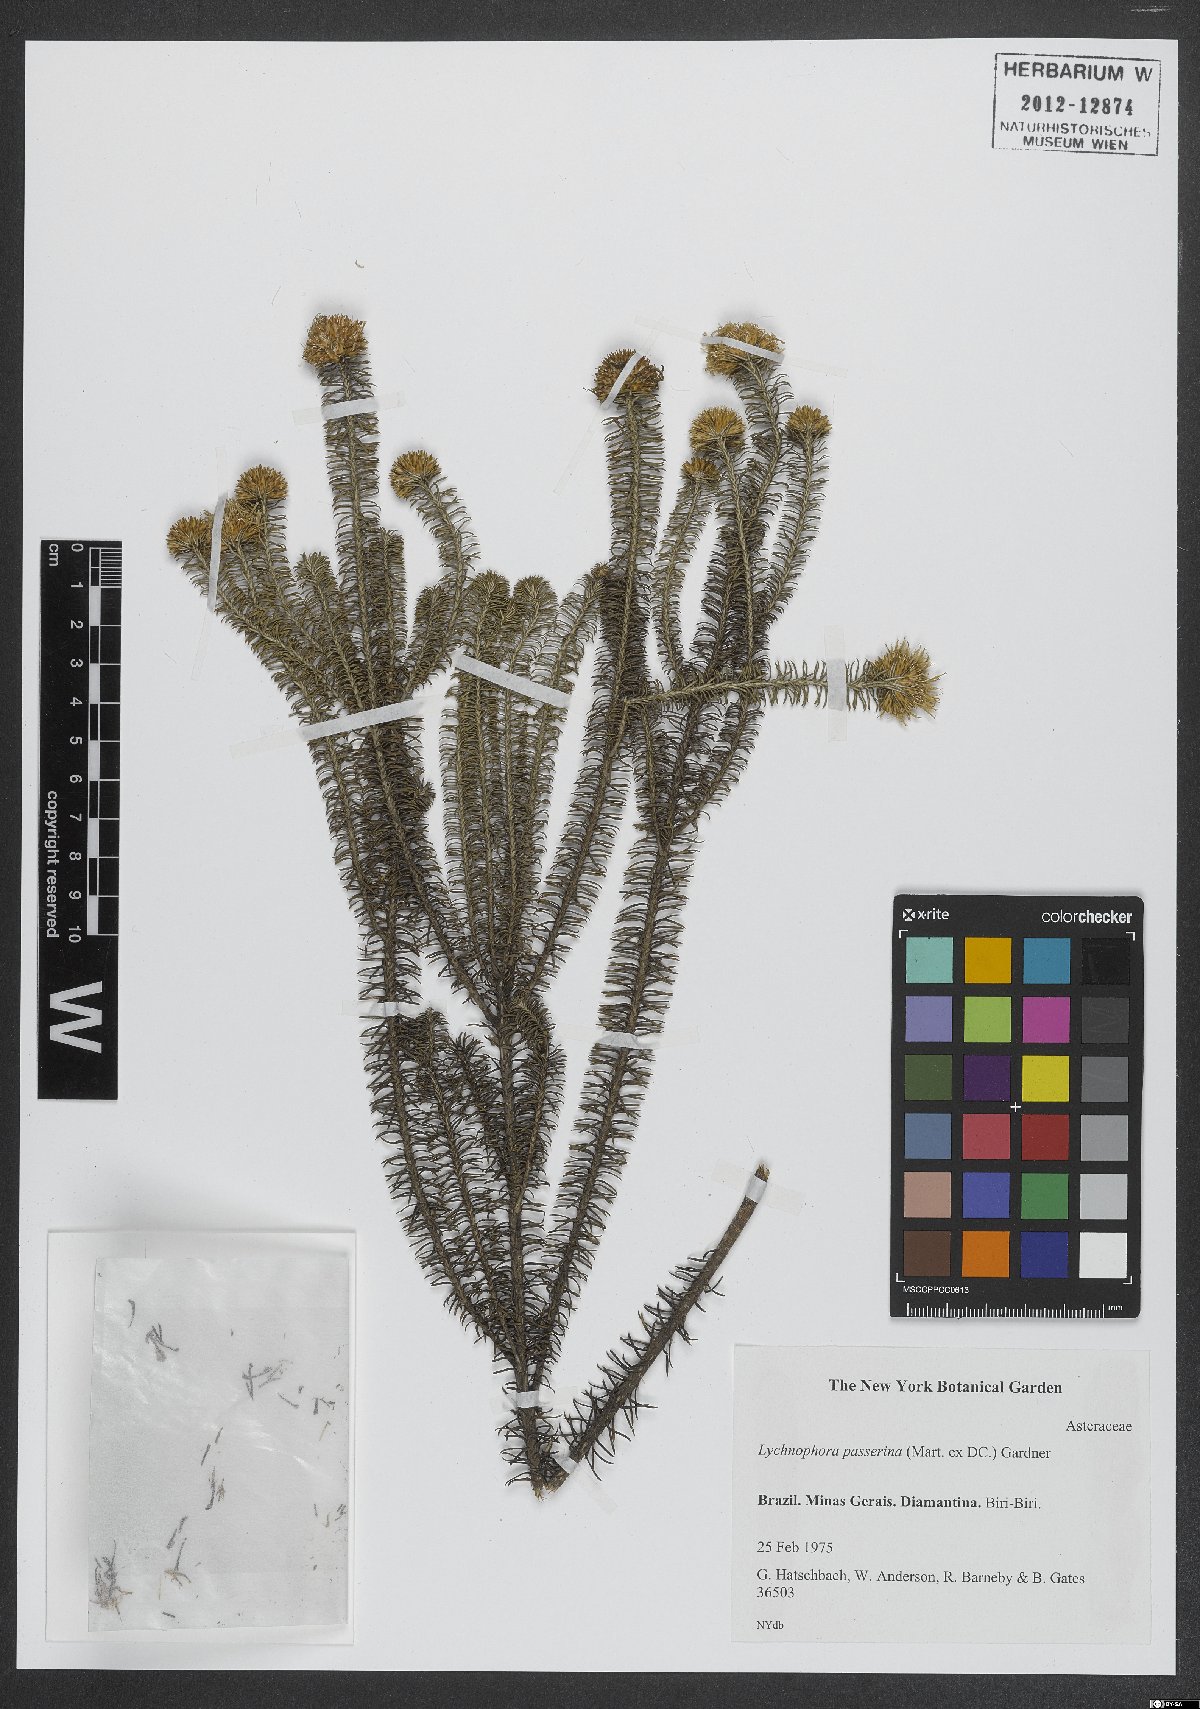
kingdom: Plantae
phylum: Tracheophyta
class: Magnoliopsida
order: Asterales
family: Asteraceae
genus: Lychnophora
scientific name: Lychnophora passerina
